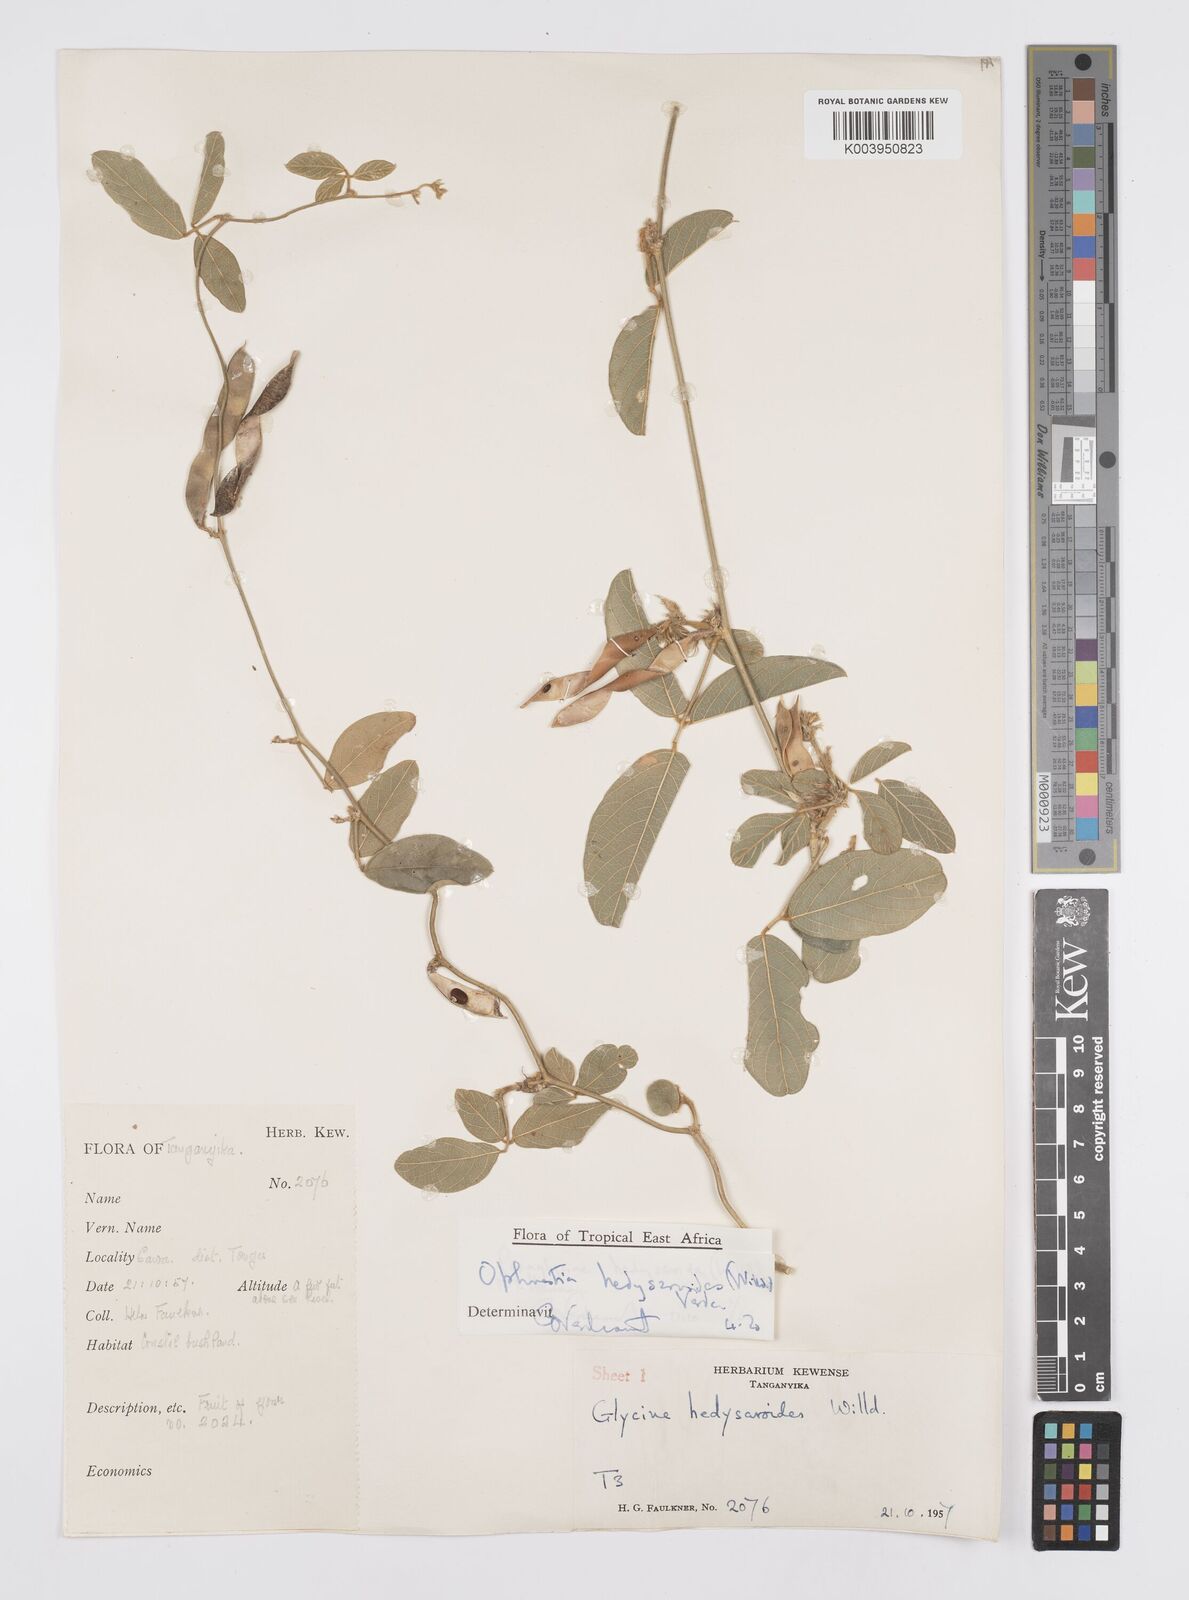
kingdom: Plantae
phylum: Tracheophyta
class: Magnoliopsida
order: Fabales
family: Fabaceae
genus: Ophrestia
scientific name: Ophrestia hedysaroides
